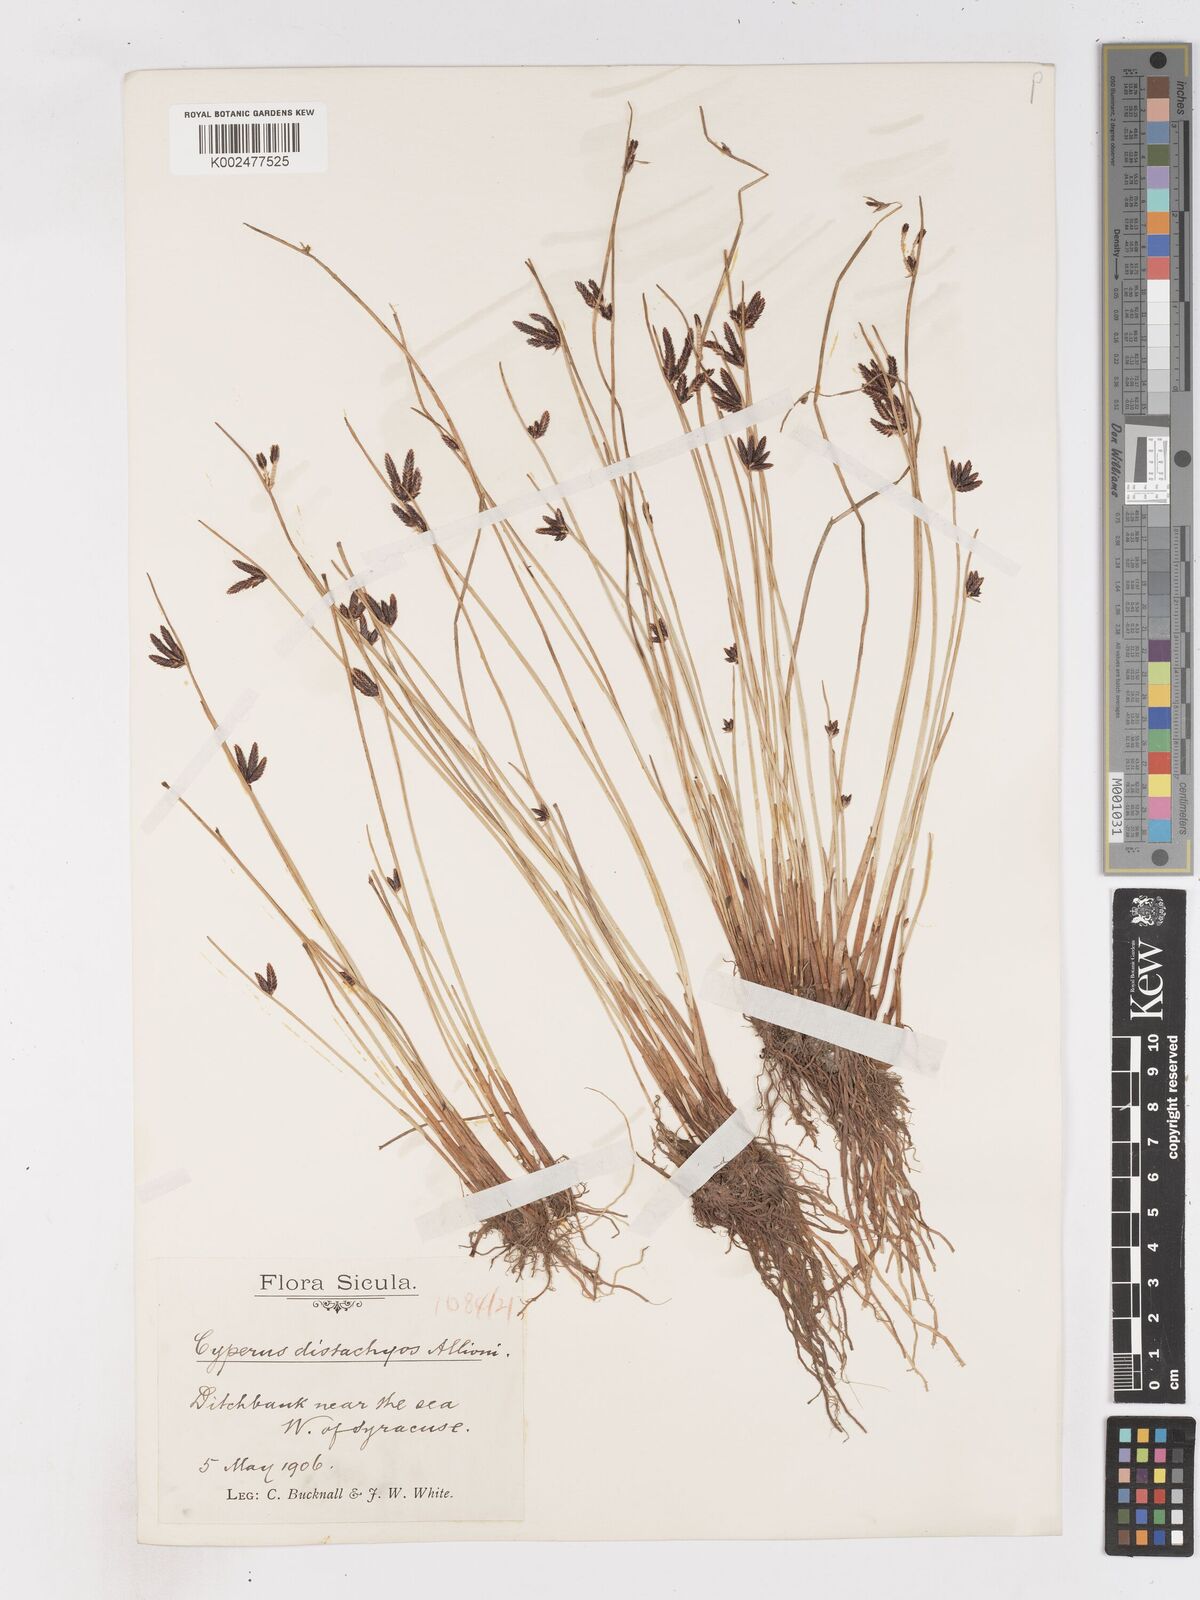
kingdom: Plantae
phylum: Tracheophyta
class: Liliopsida
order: Poales
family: Cyperaceae
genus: Cyperus
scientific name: Cyperus laevigatus
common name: Smooth flat sedge
